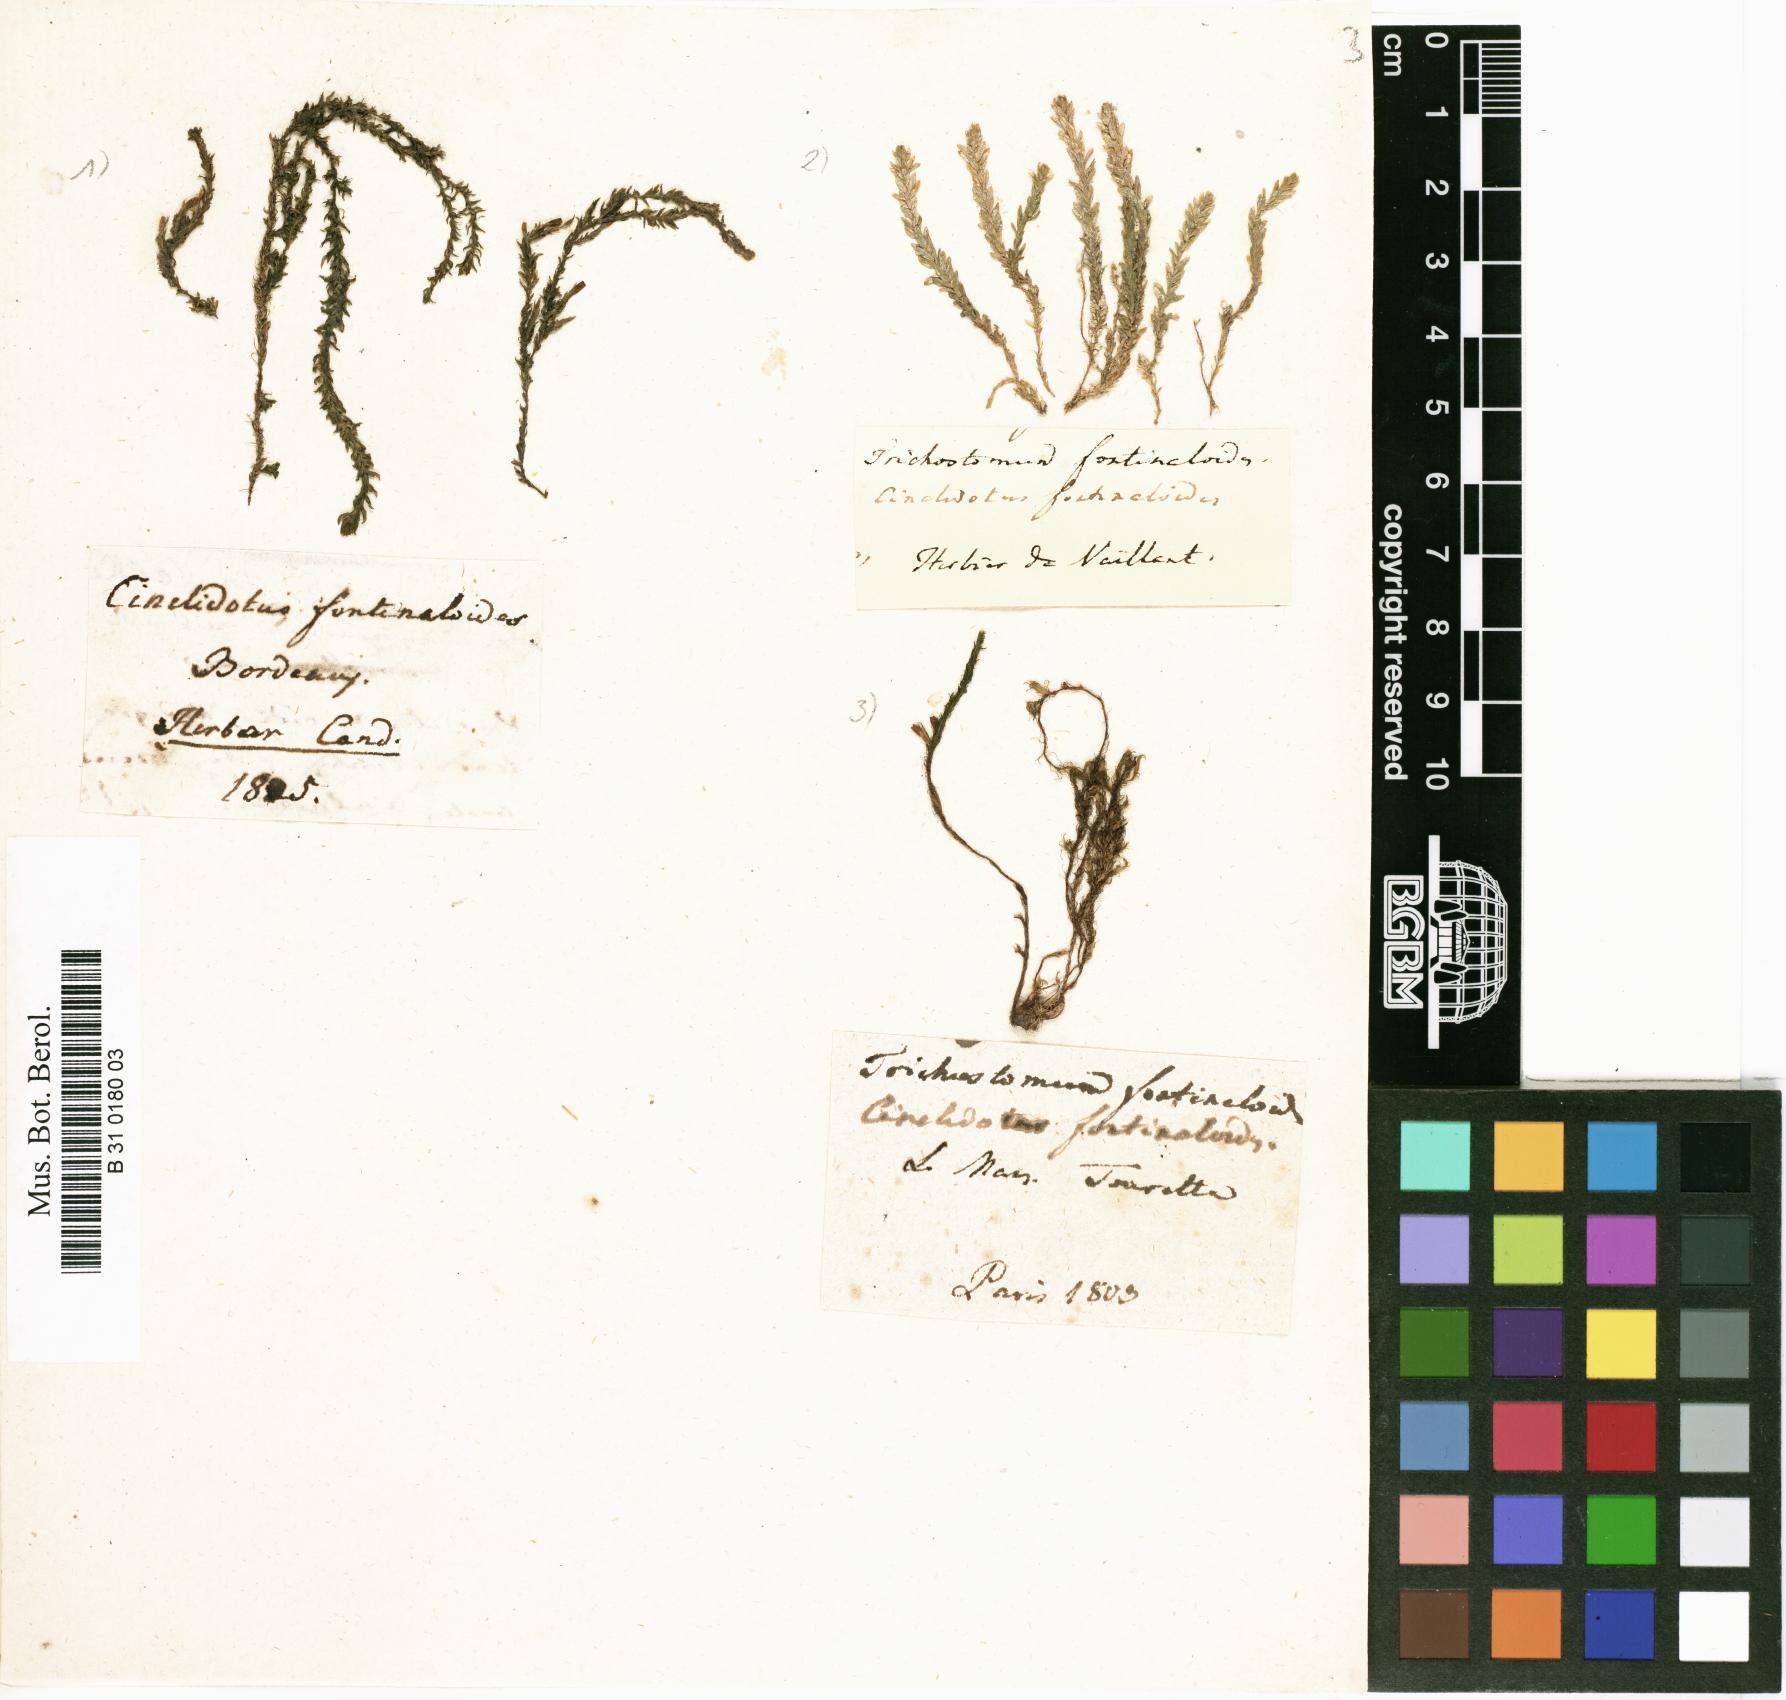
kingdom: Plantae
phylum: Bryophyta
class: Bryopsida
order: Pottiales
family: Pottiaceae
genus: Cinclidotus
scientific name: Cinclidotus fontinaloides
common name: Smaller lattice-moss
